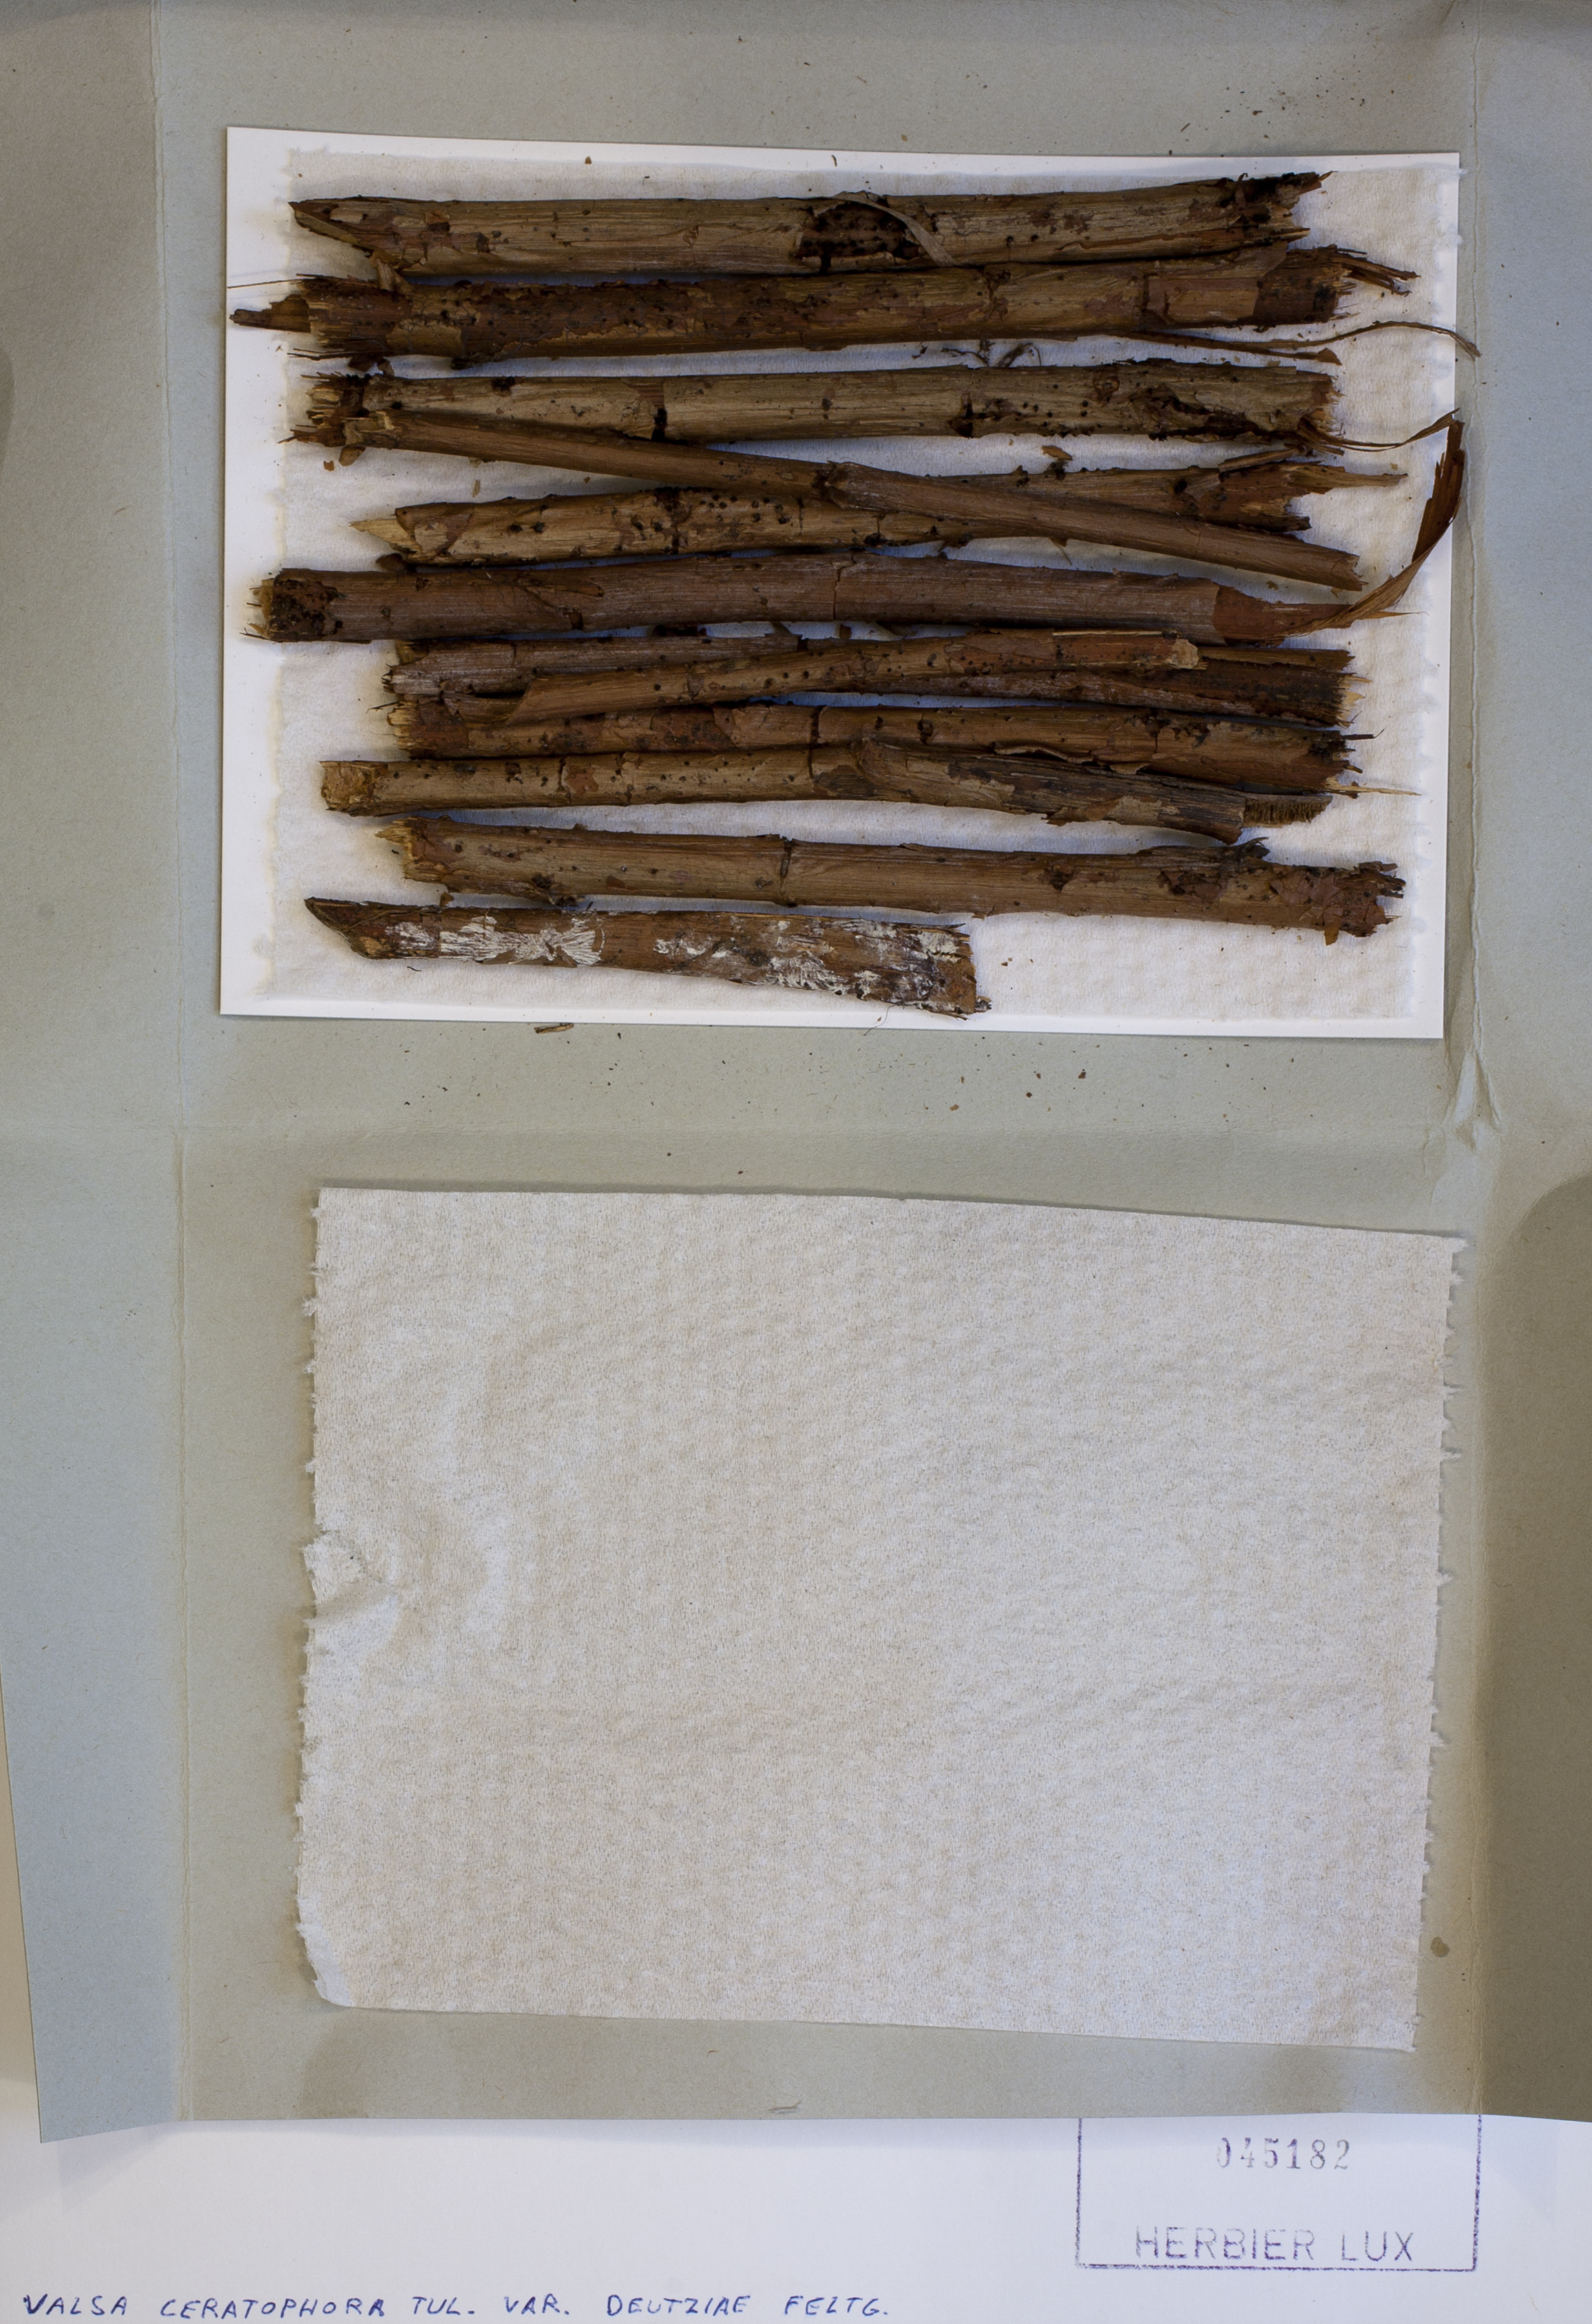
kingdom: Fungi
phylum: Ascomycota
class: Sordariomycetes
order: Diaporthales
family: Valsaceae
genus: Valsa
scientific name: Valsa ceratophora
